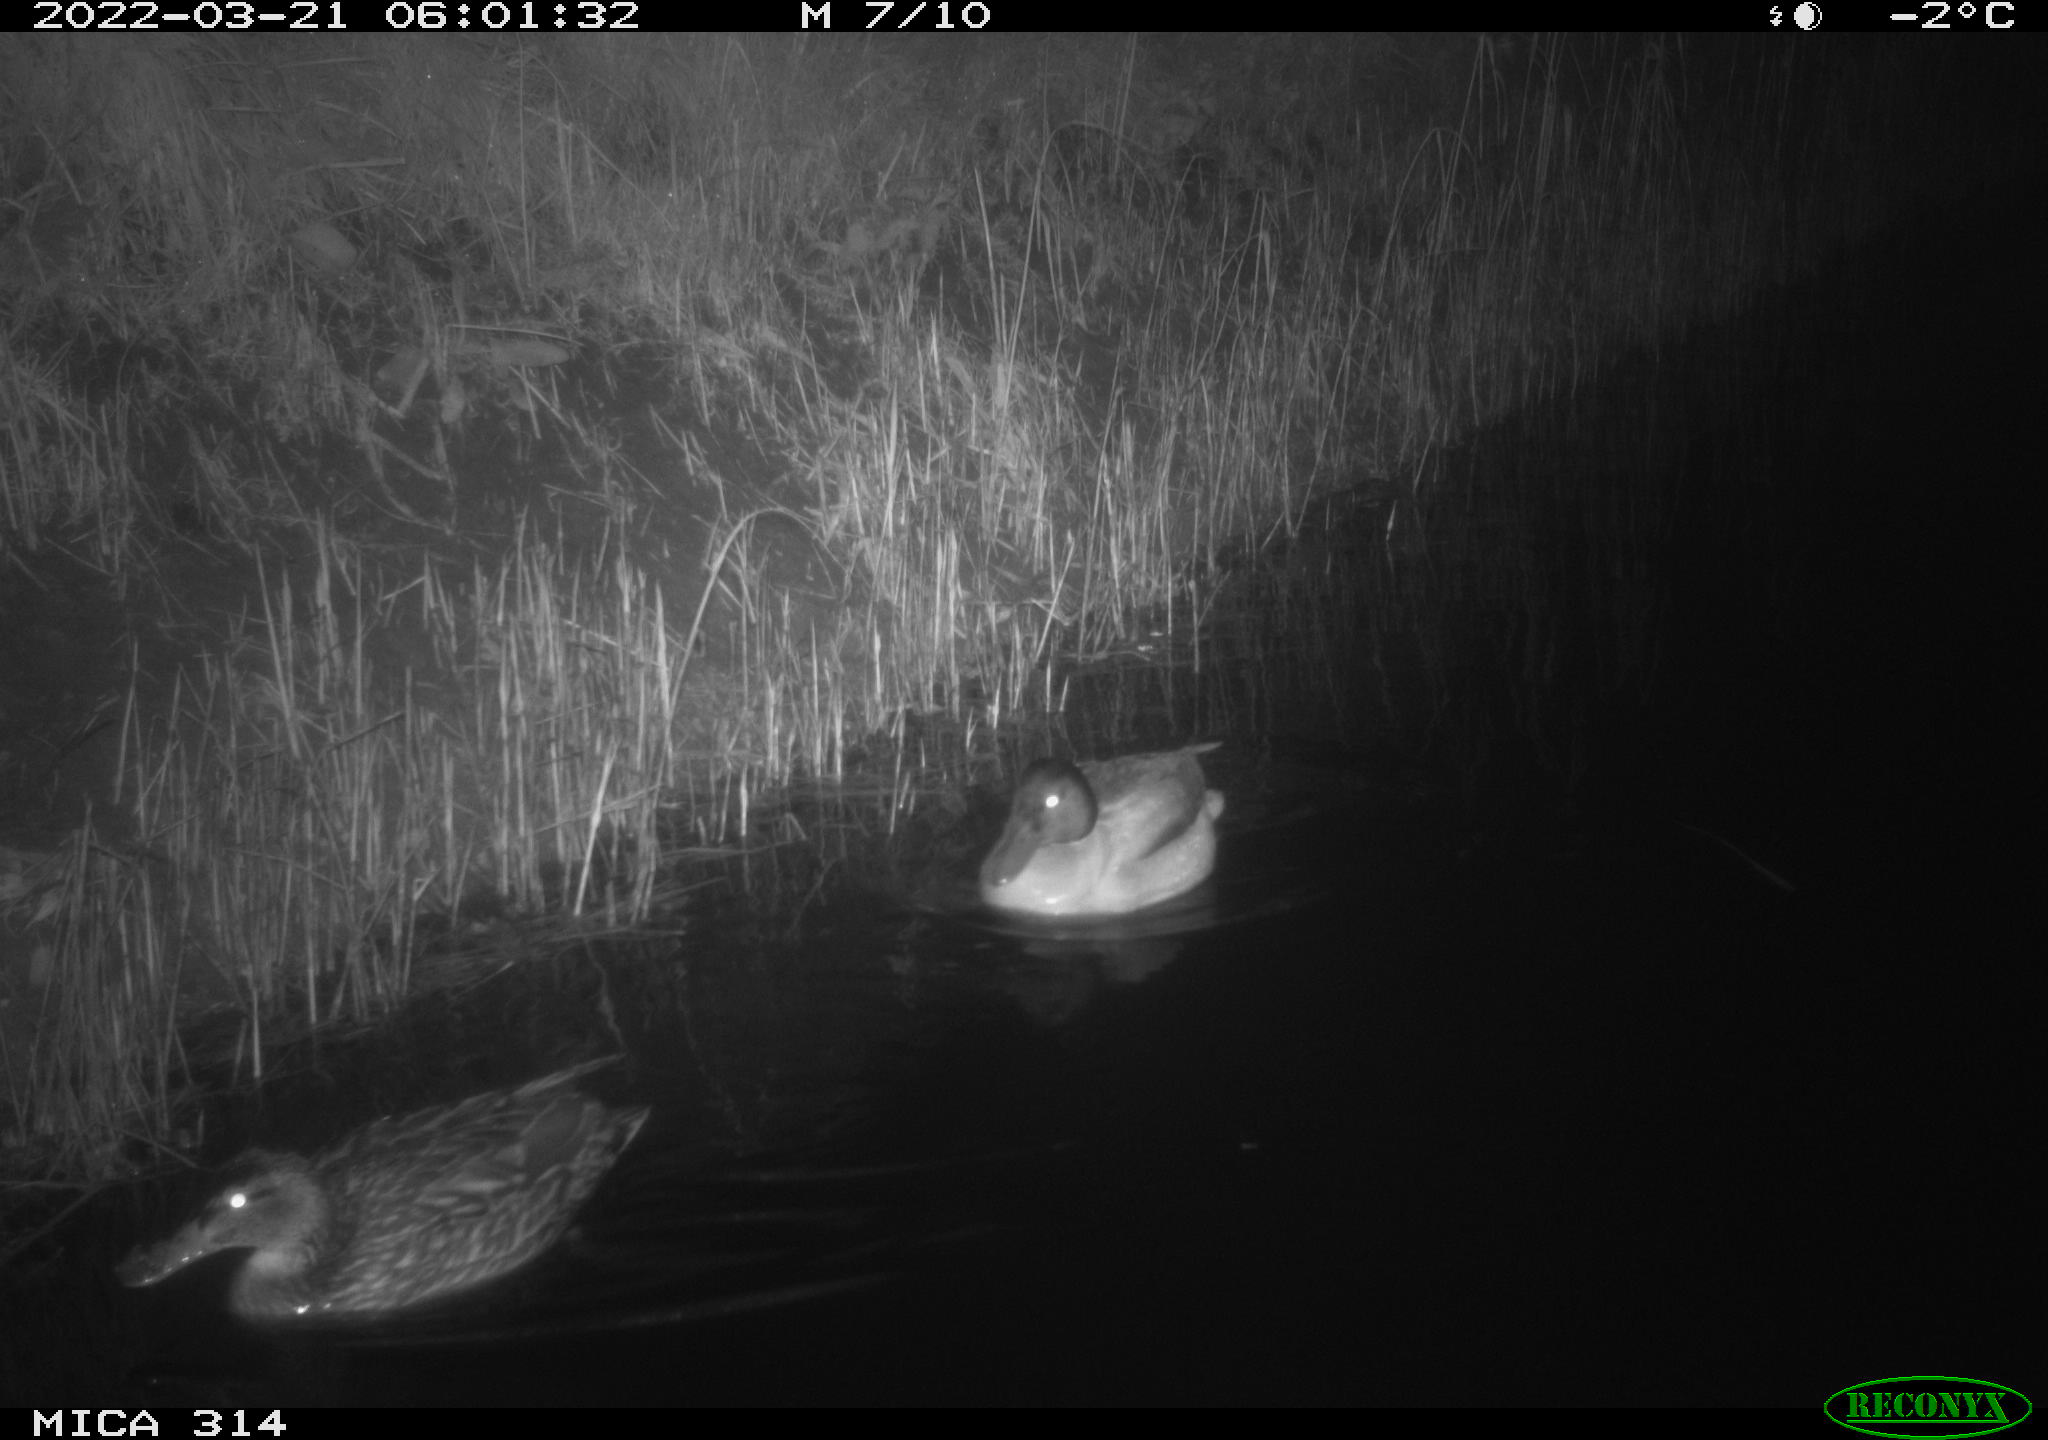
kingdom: Animalia
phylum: Chordata
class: Aves
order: Anseriformes
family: Anatidae
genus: Anas
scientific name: Anas platyrhynchos
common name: Mallard
